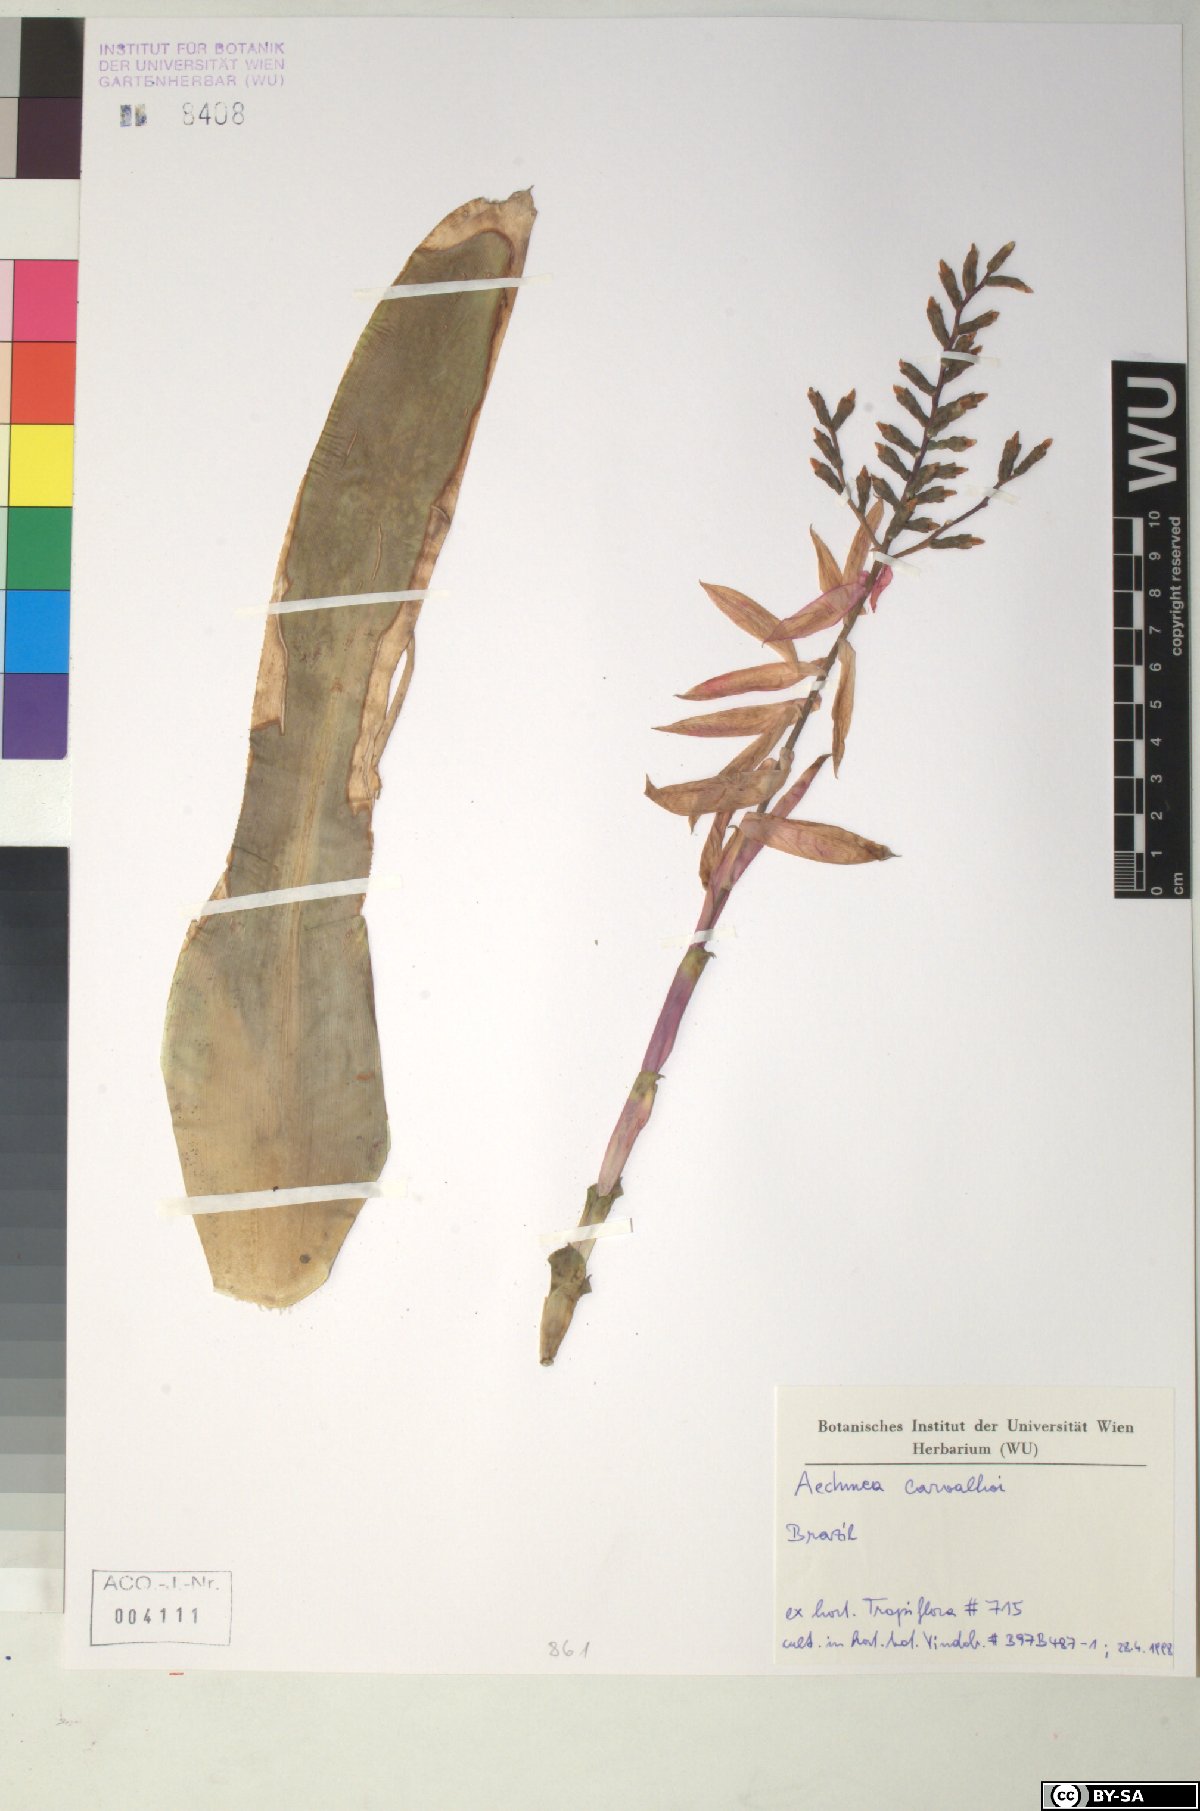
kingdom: Plantae
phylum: Tracheophyta
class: Liliopsida
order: Poales
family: Bromeliaceae
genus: Aechmea
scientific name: Aechmea carvalhoi
